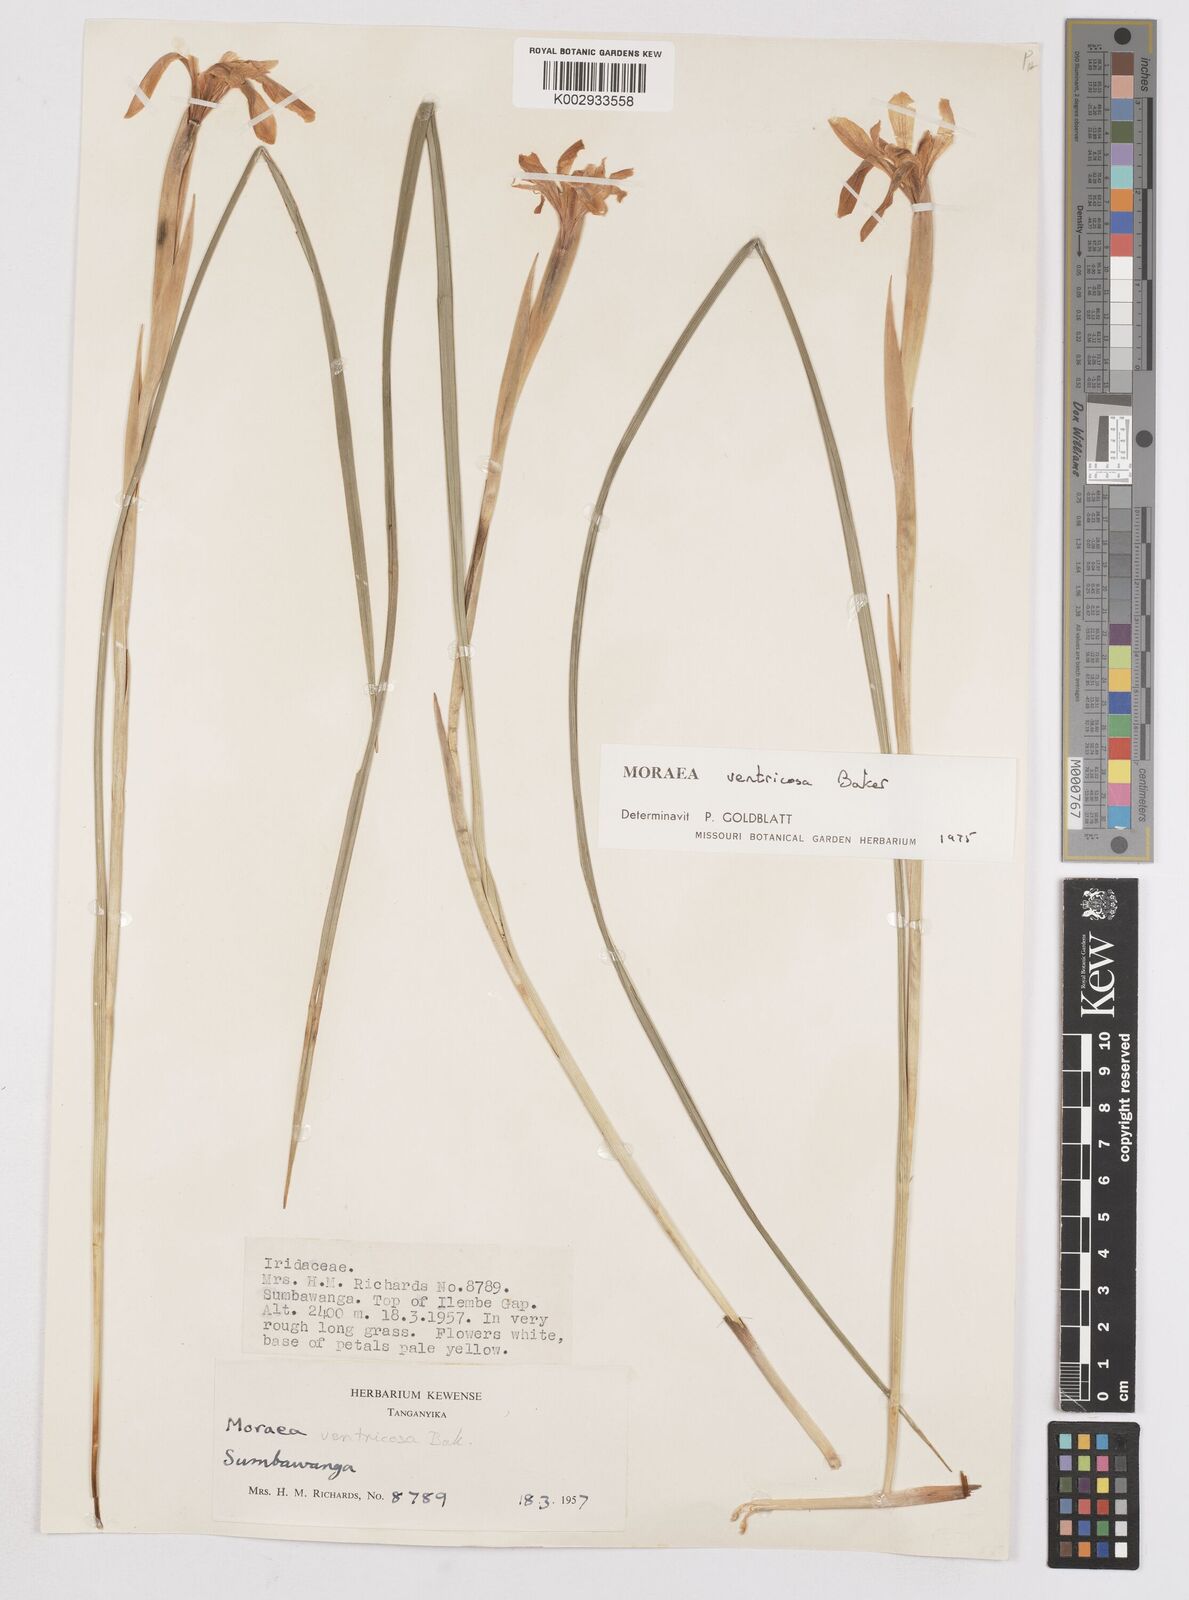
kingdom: Plantae
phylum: Tracheophyta
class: Liliopsida
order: Asparagales
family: Iridaceae
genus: Moraea
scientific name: Moraea ventricosa
